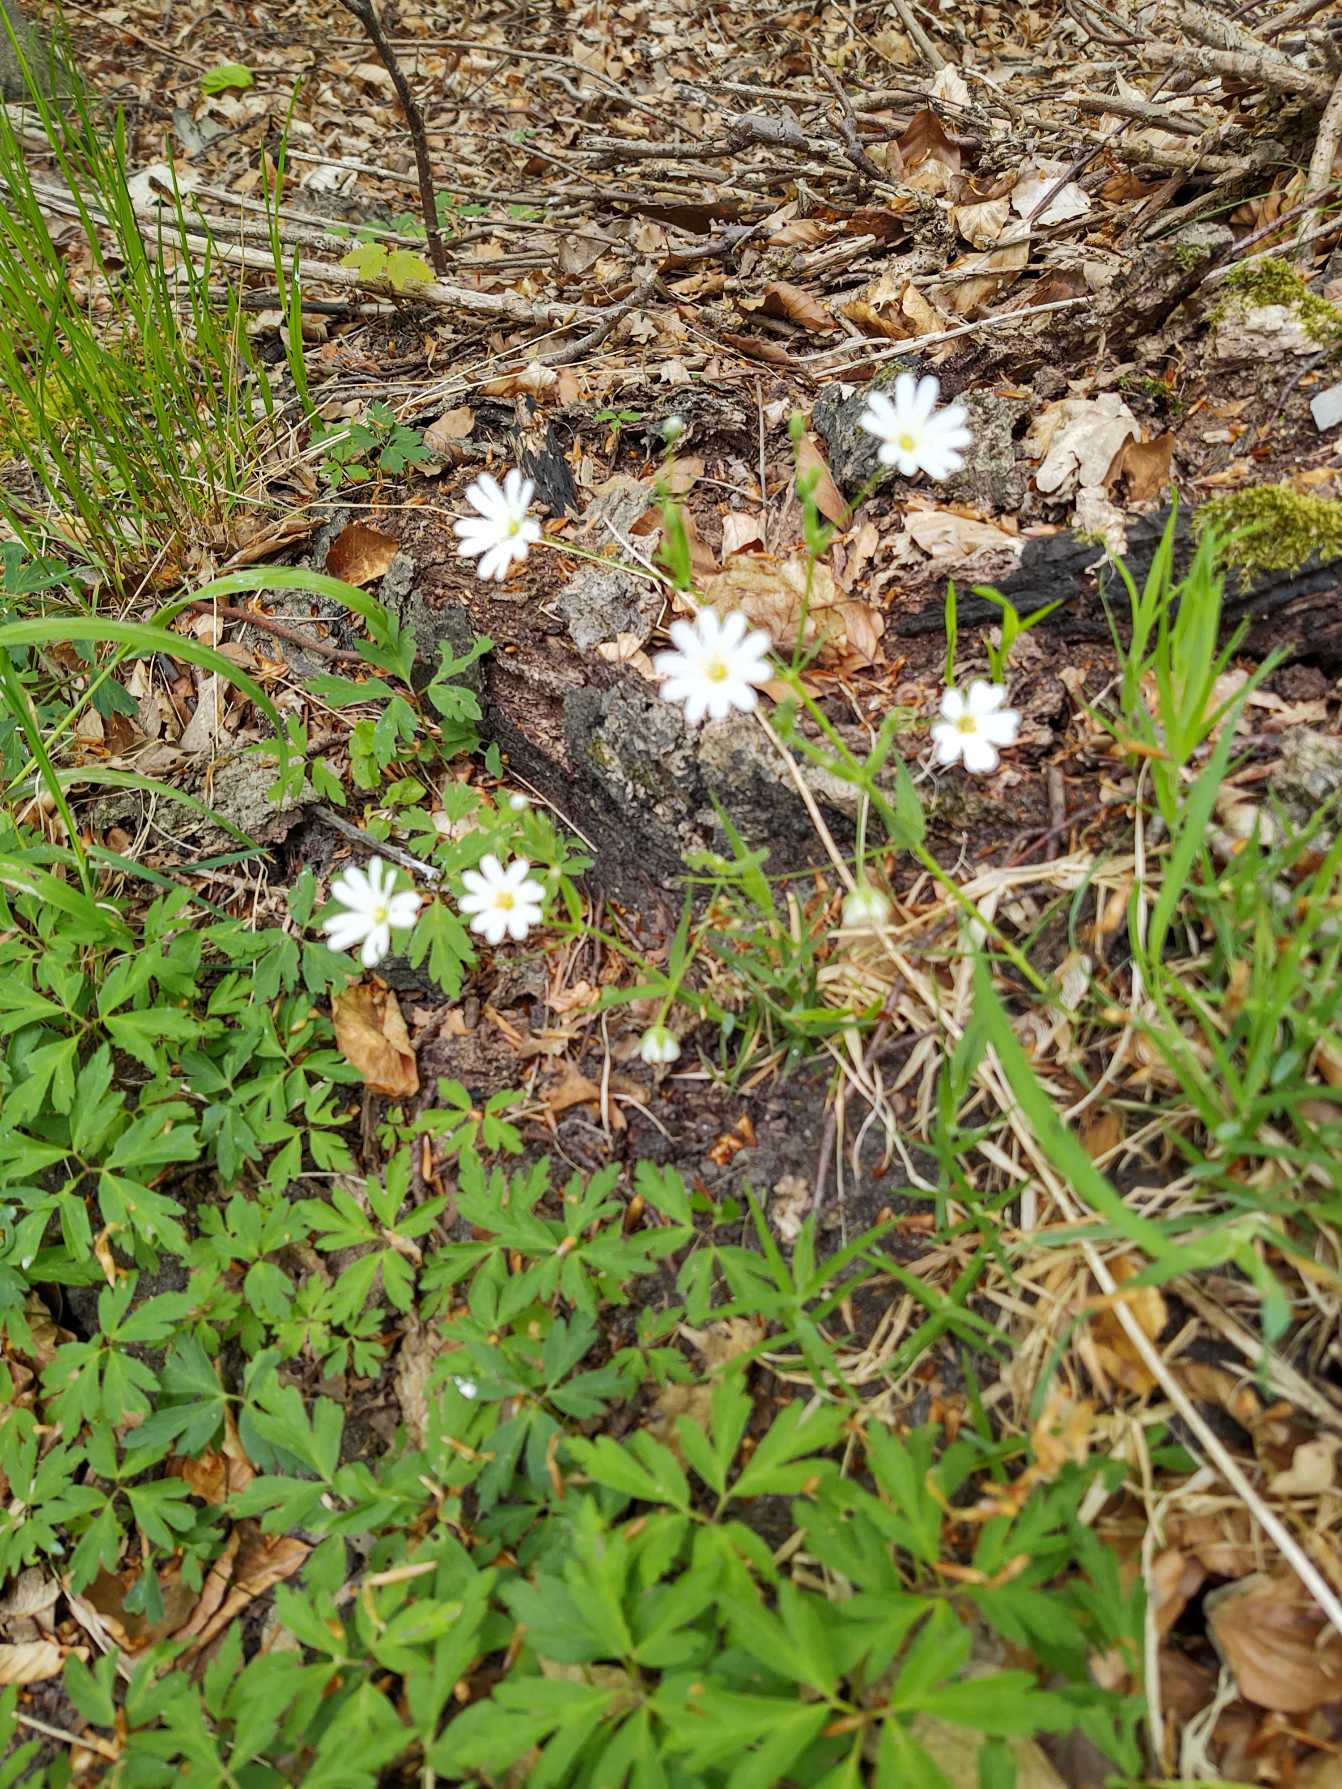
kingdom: Plantae
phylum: Tracheophyta
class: Magnoliopsida
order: Caryophyllales
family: Caryophyllaceae
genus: Rabelera
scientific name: Rabelera holostea
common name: Stor fladstjerne
